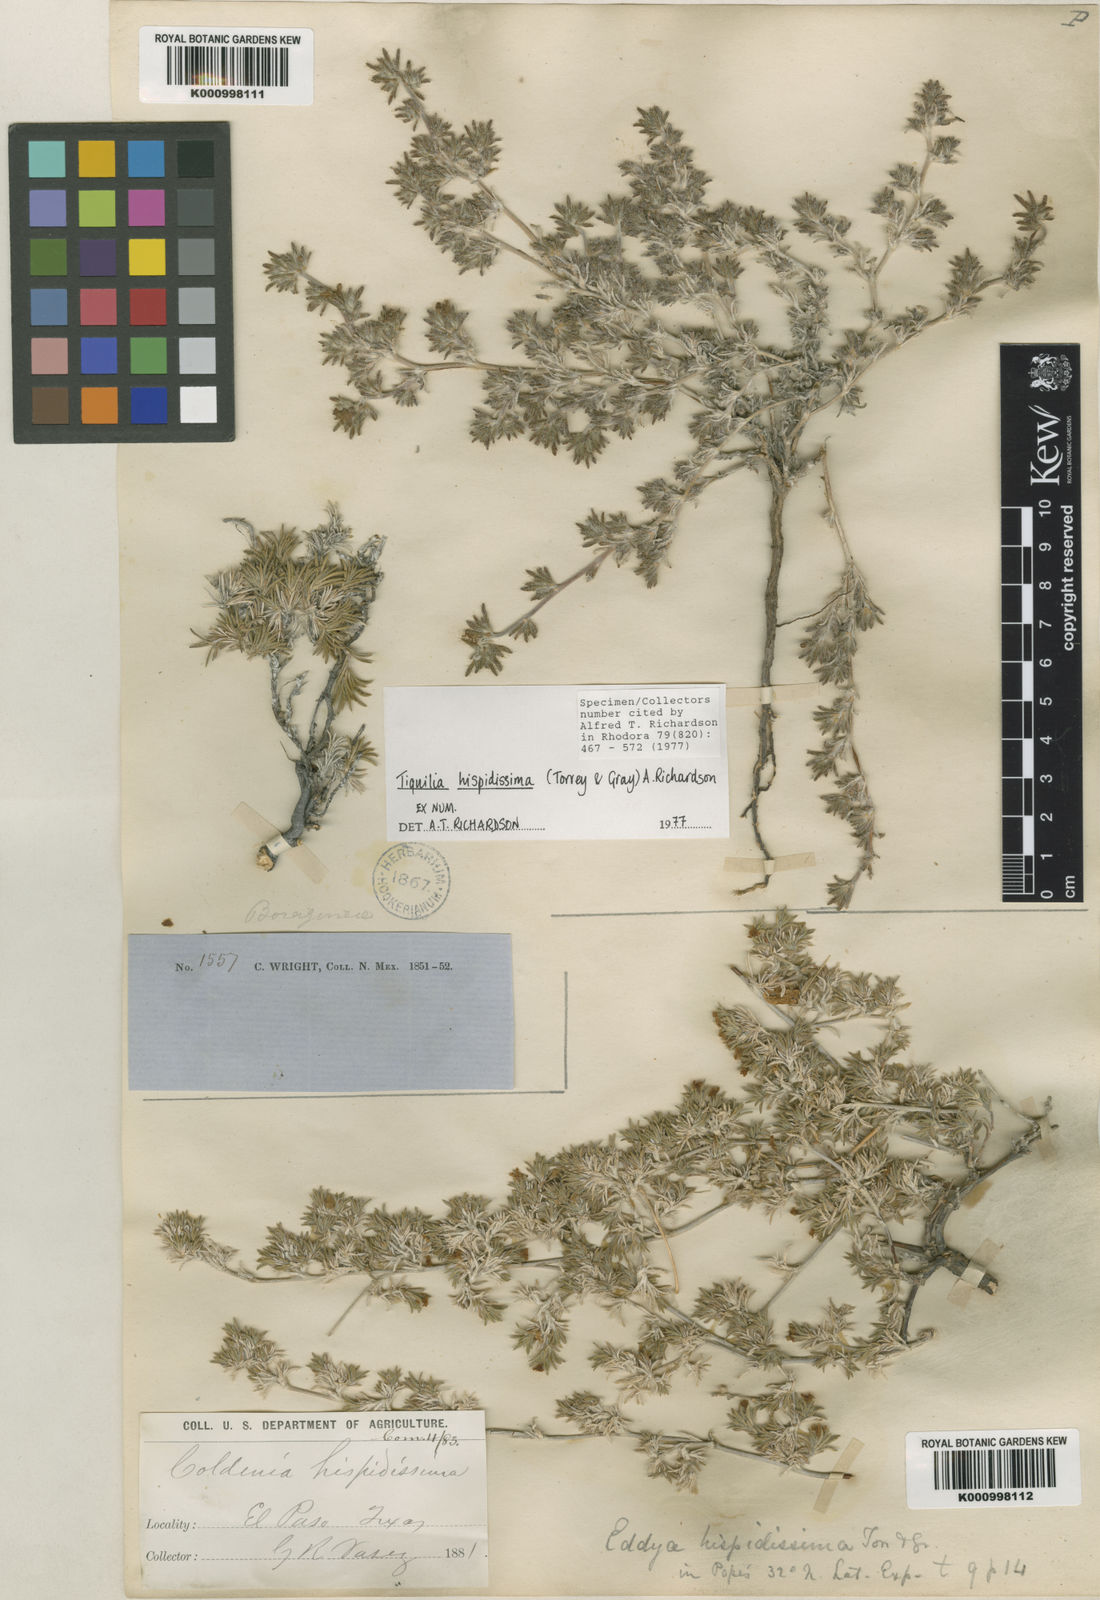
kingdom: Plantae
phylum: Tracheophyta
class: Magnoliopsida
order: Boraginales
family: Ehretiaceae
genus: Tiquilia
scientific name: Tiquilia hispidissima
